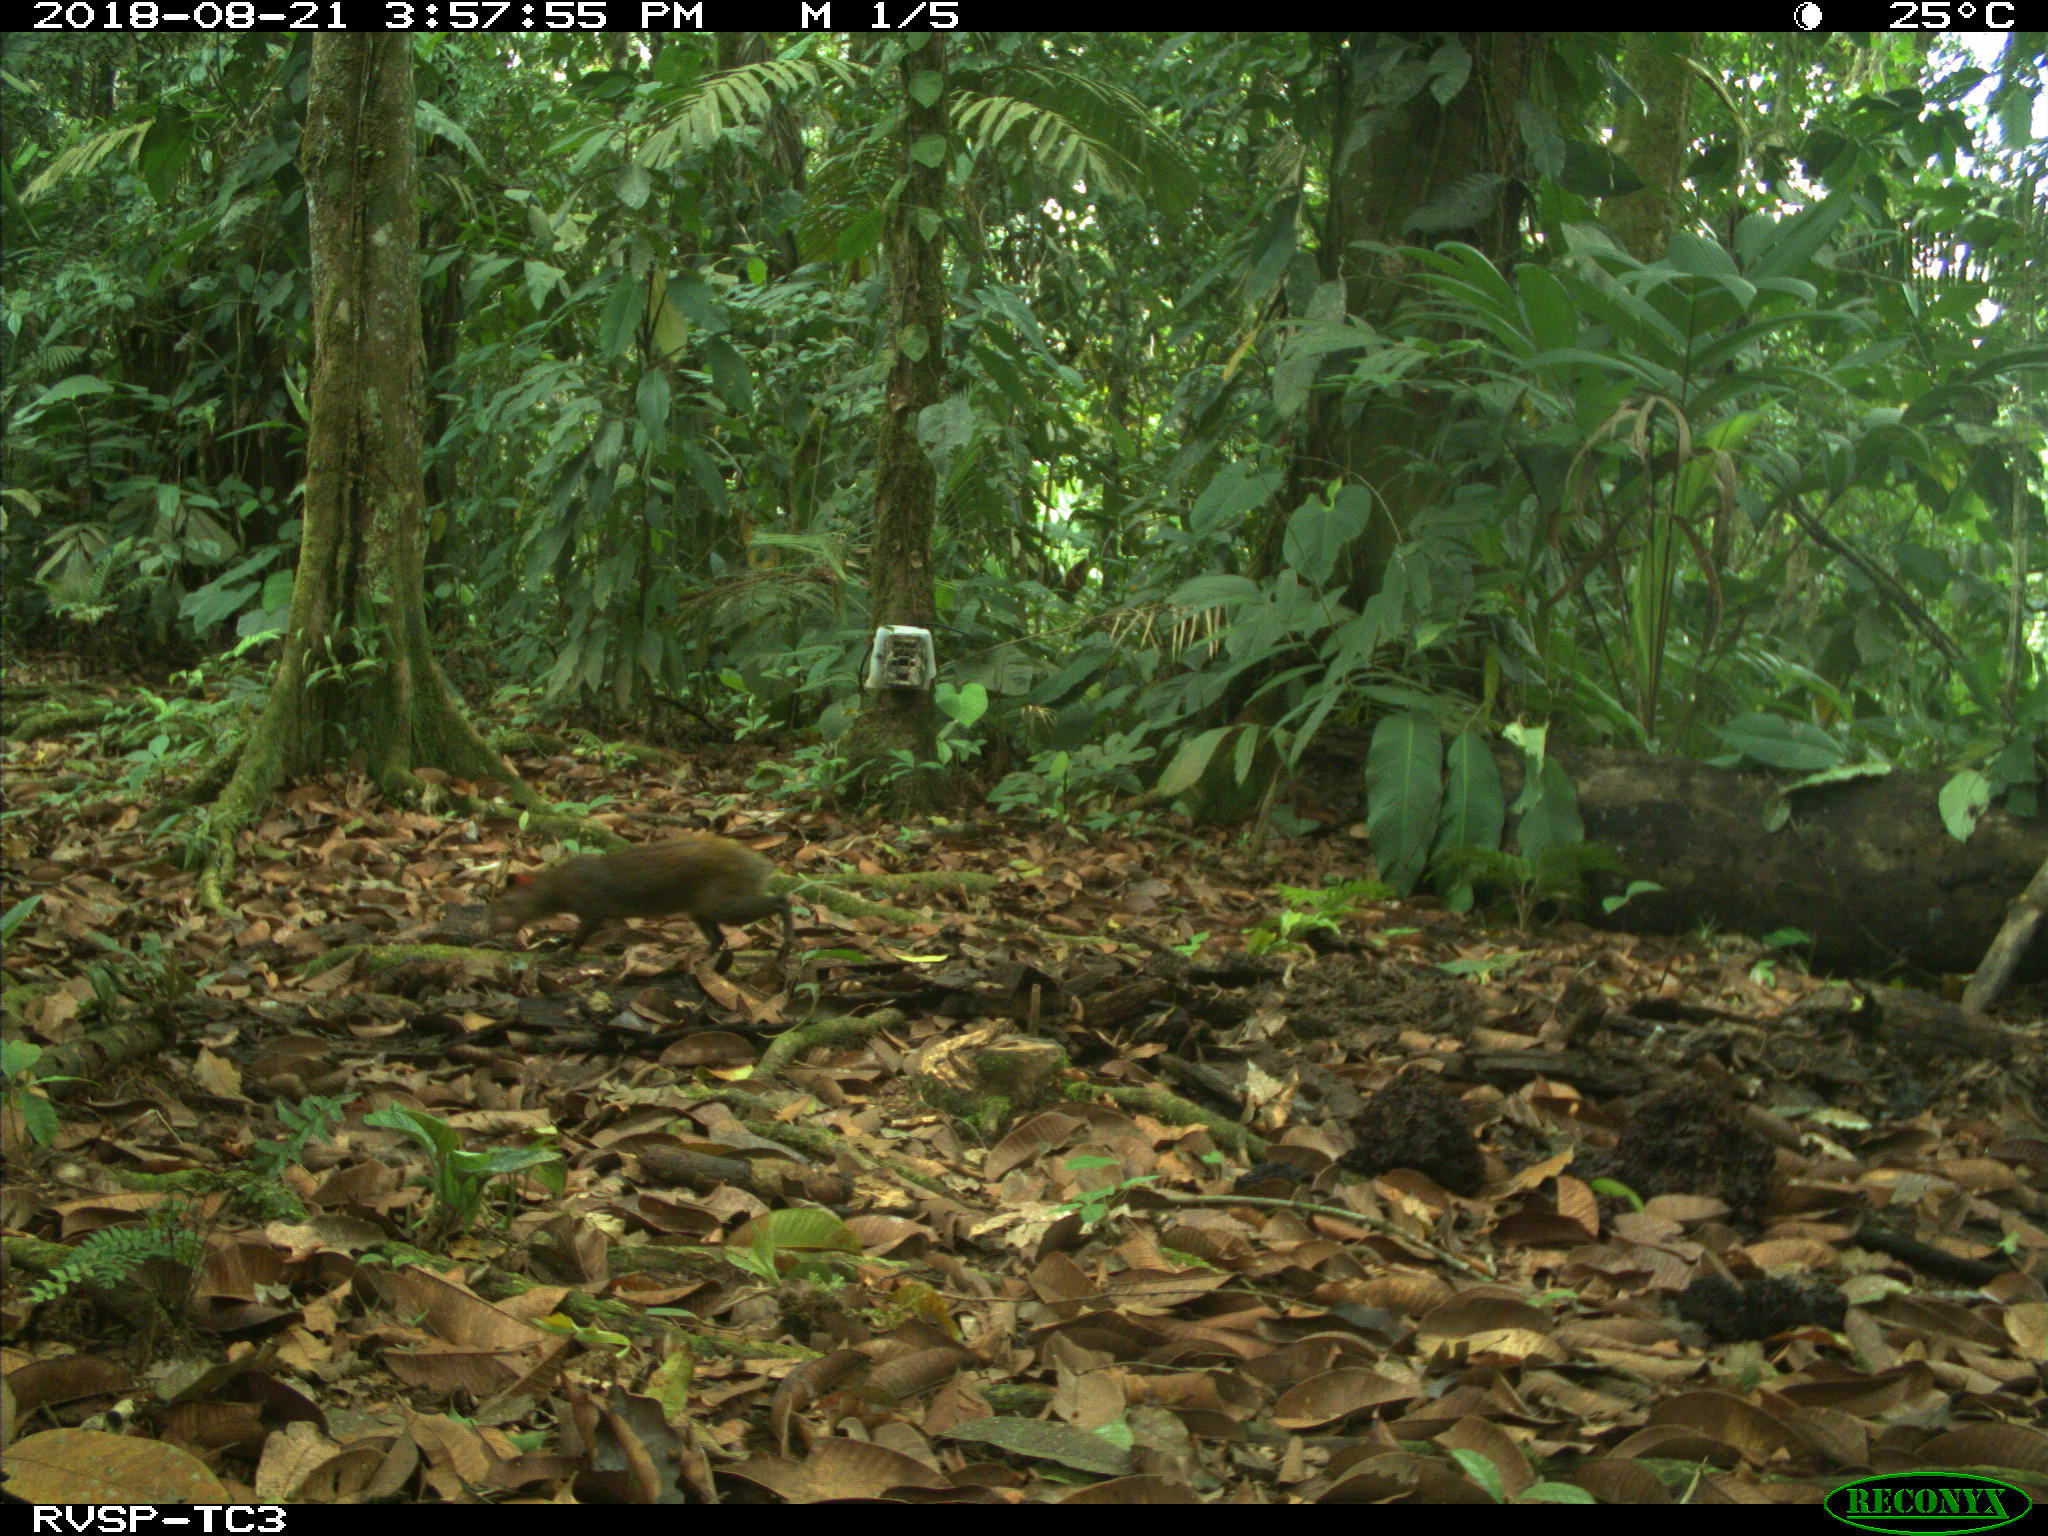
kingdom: Animalia
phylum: Chordata
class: Mammalia
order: Rodentia
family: Dasyproctidae
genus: Dasyprocta
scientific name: Dasyprocta punctata
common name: Central american agouti
